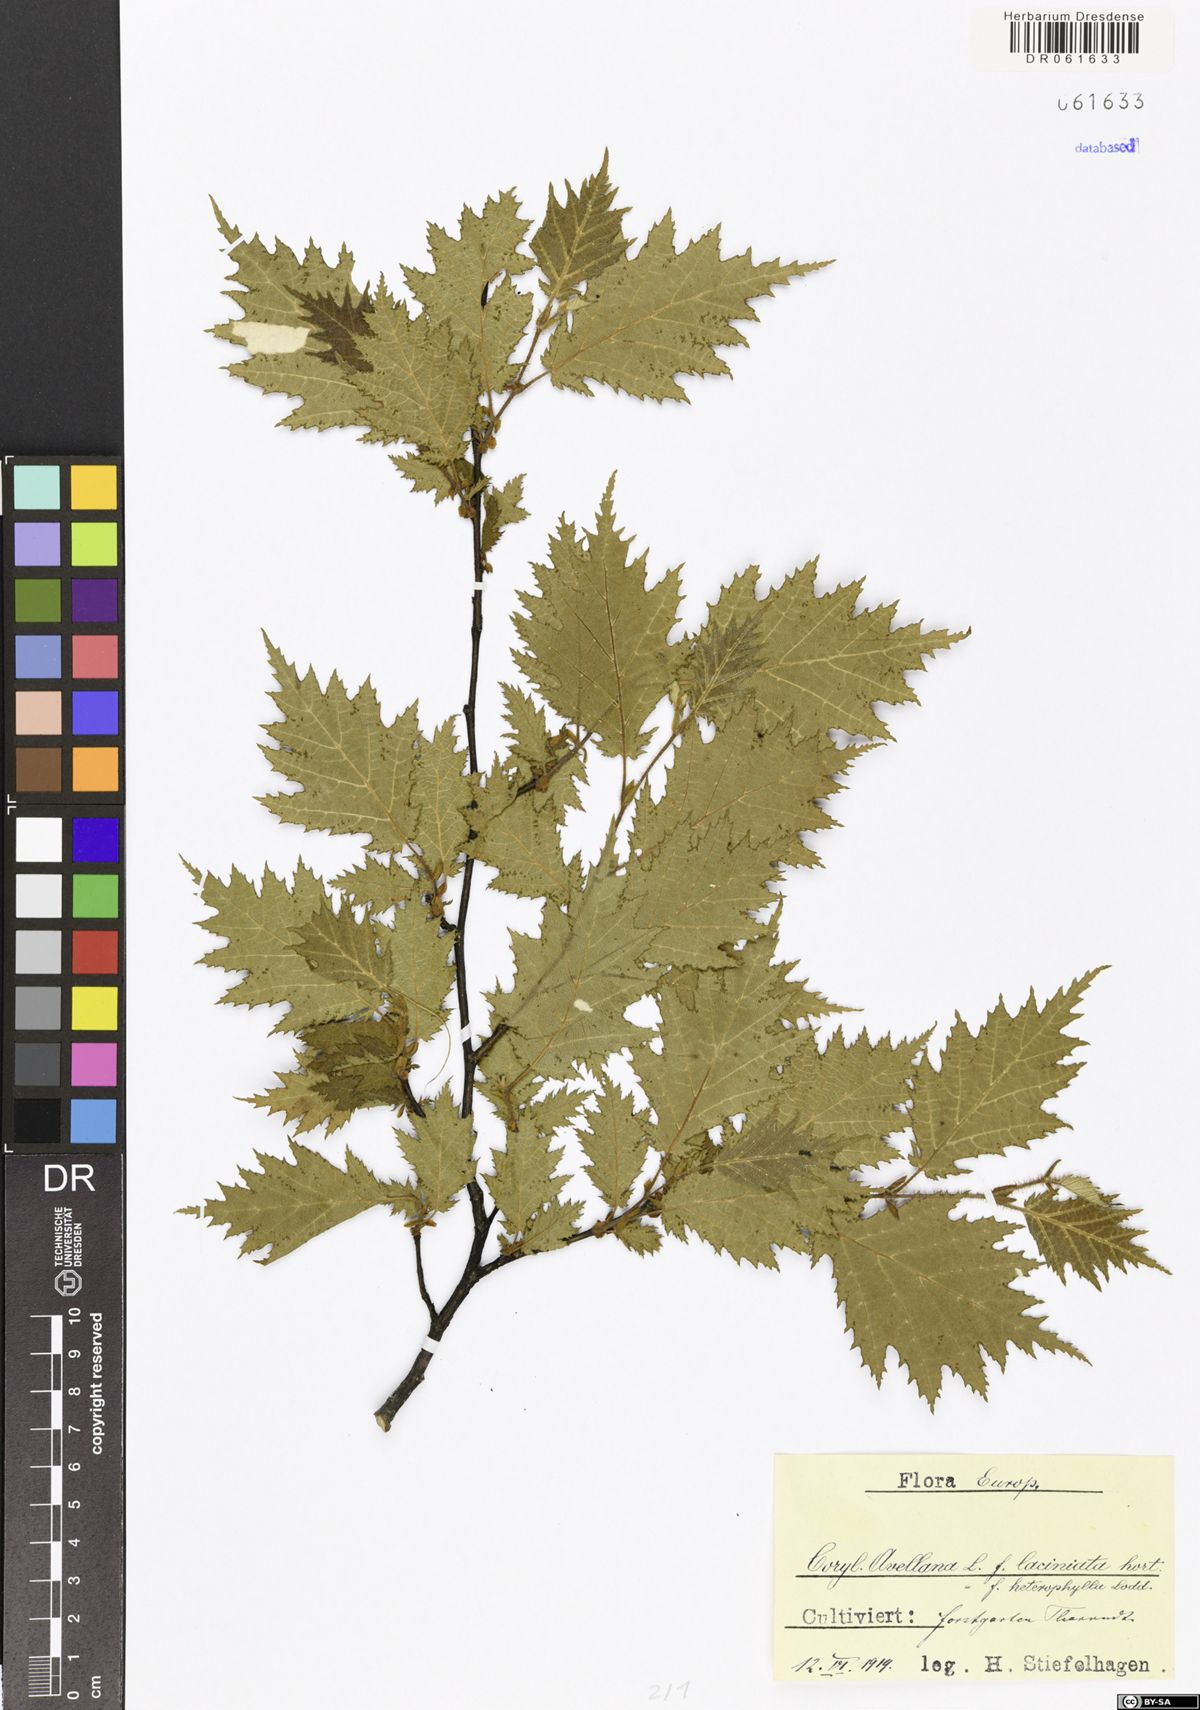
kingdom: Plantae
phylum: Tracheophyta
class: Magnoliopsida
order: Fagales
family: Betulaceae
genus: Corylus
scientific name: Corylus avellana
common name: European hazel
